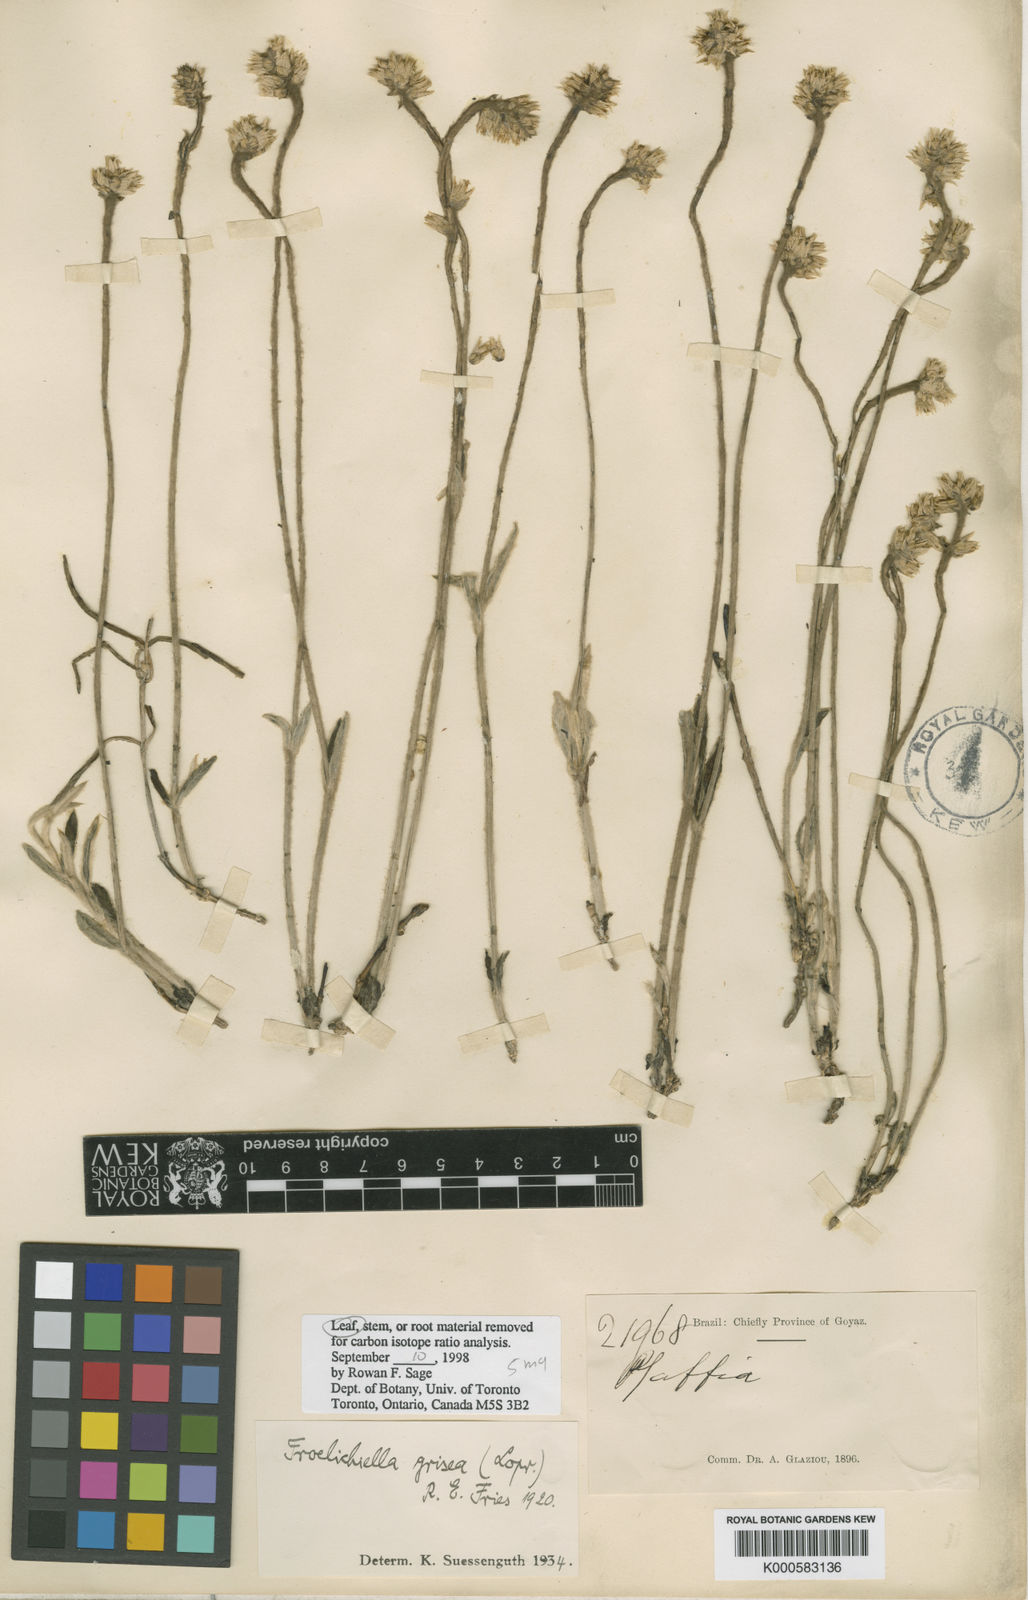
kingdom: Plantae
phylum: Tracheophyta
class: Magnoliopsida
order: Caryophyllales
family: Amaranthaceae
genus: Froelichiella
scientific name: Froelichiella grisea
